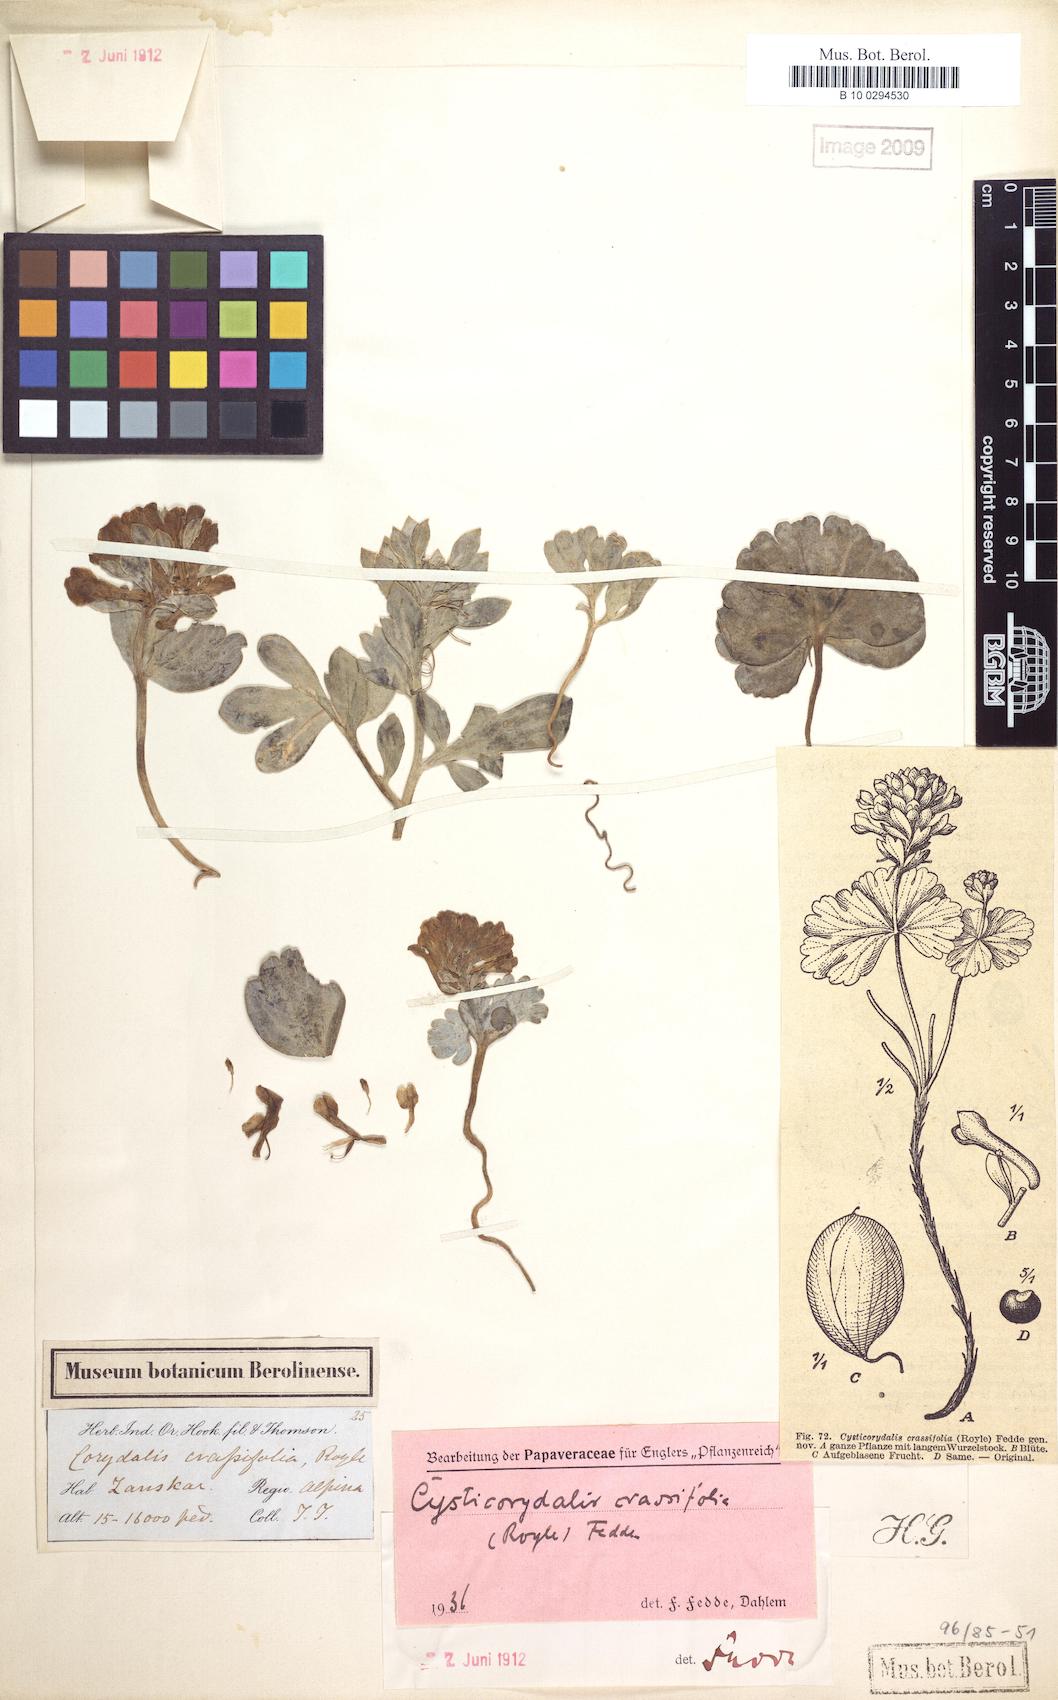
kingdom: Plantae
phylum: Tracheophyta
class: Magnoliopsida
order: Ranunculales
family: Papaveraceae
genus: Corydalis
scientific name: Corydalis crassifolia
